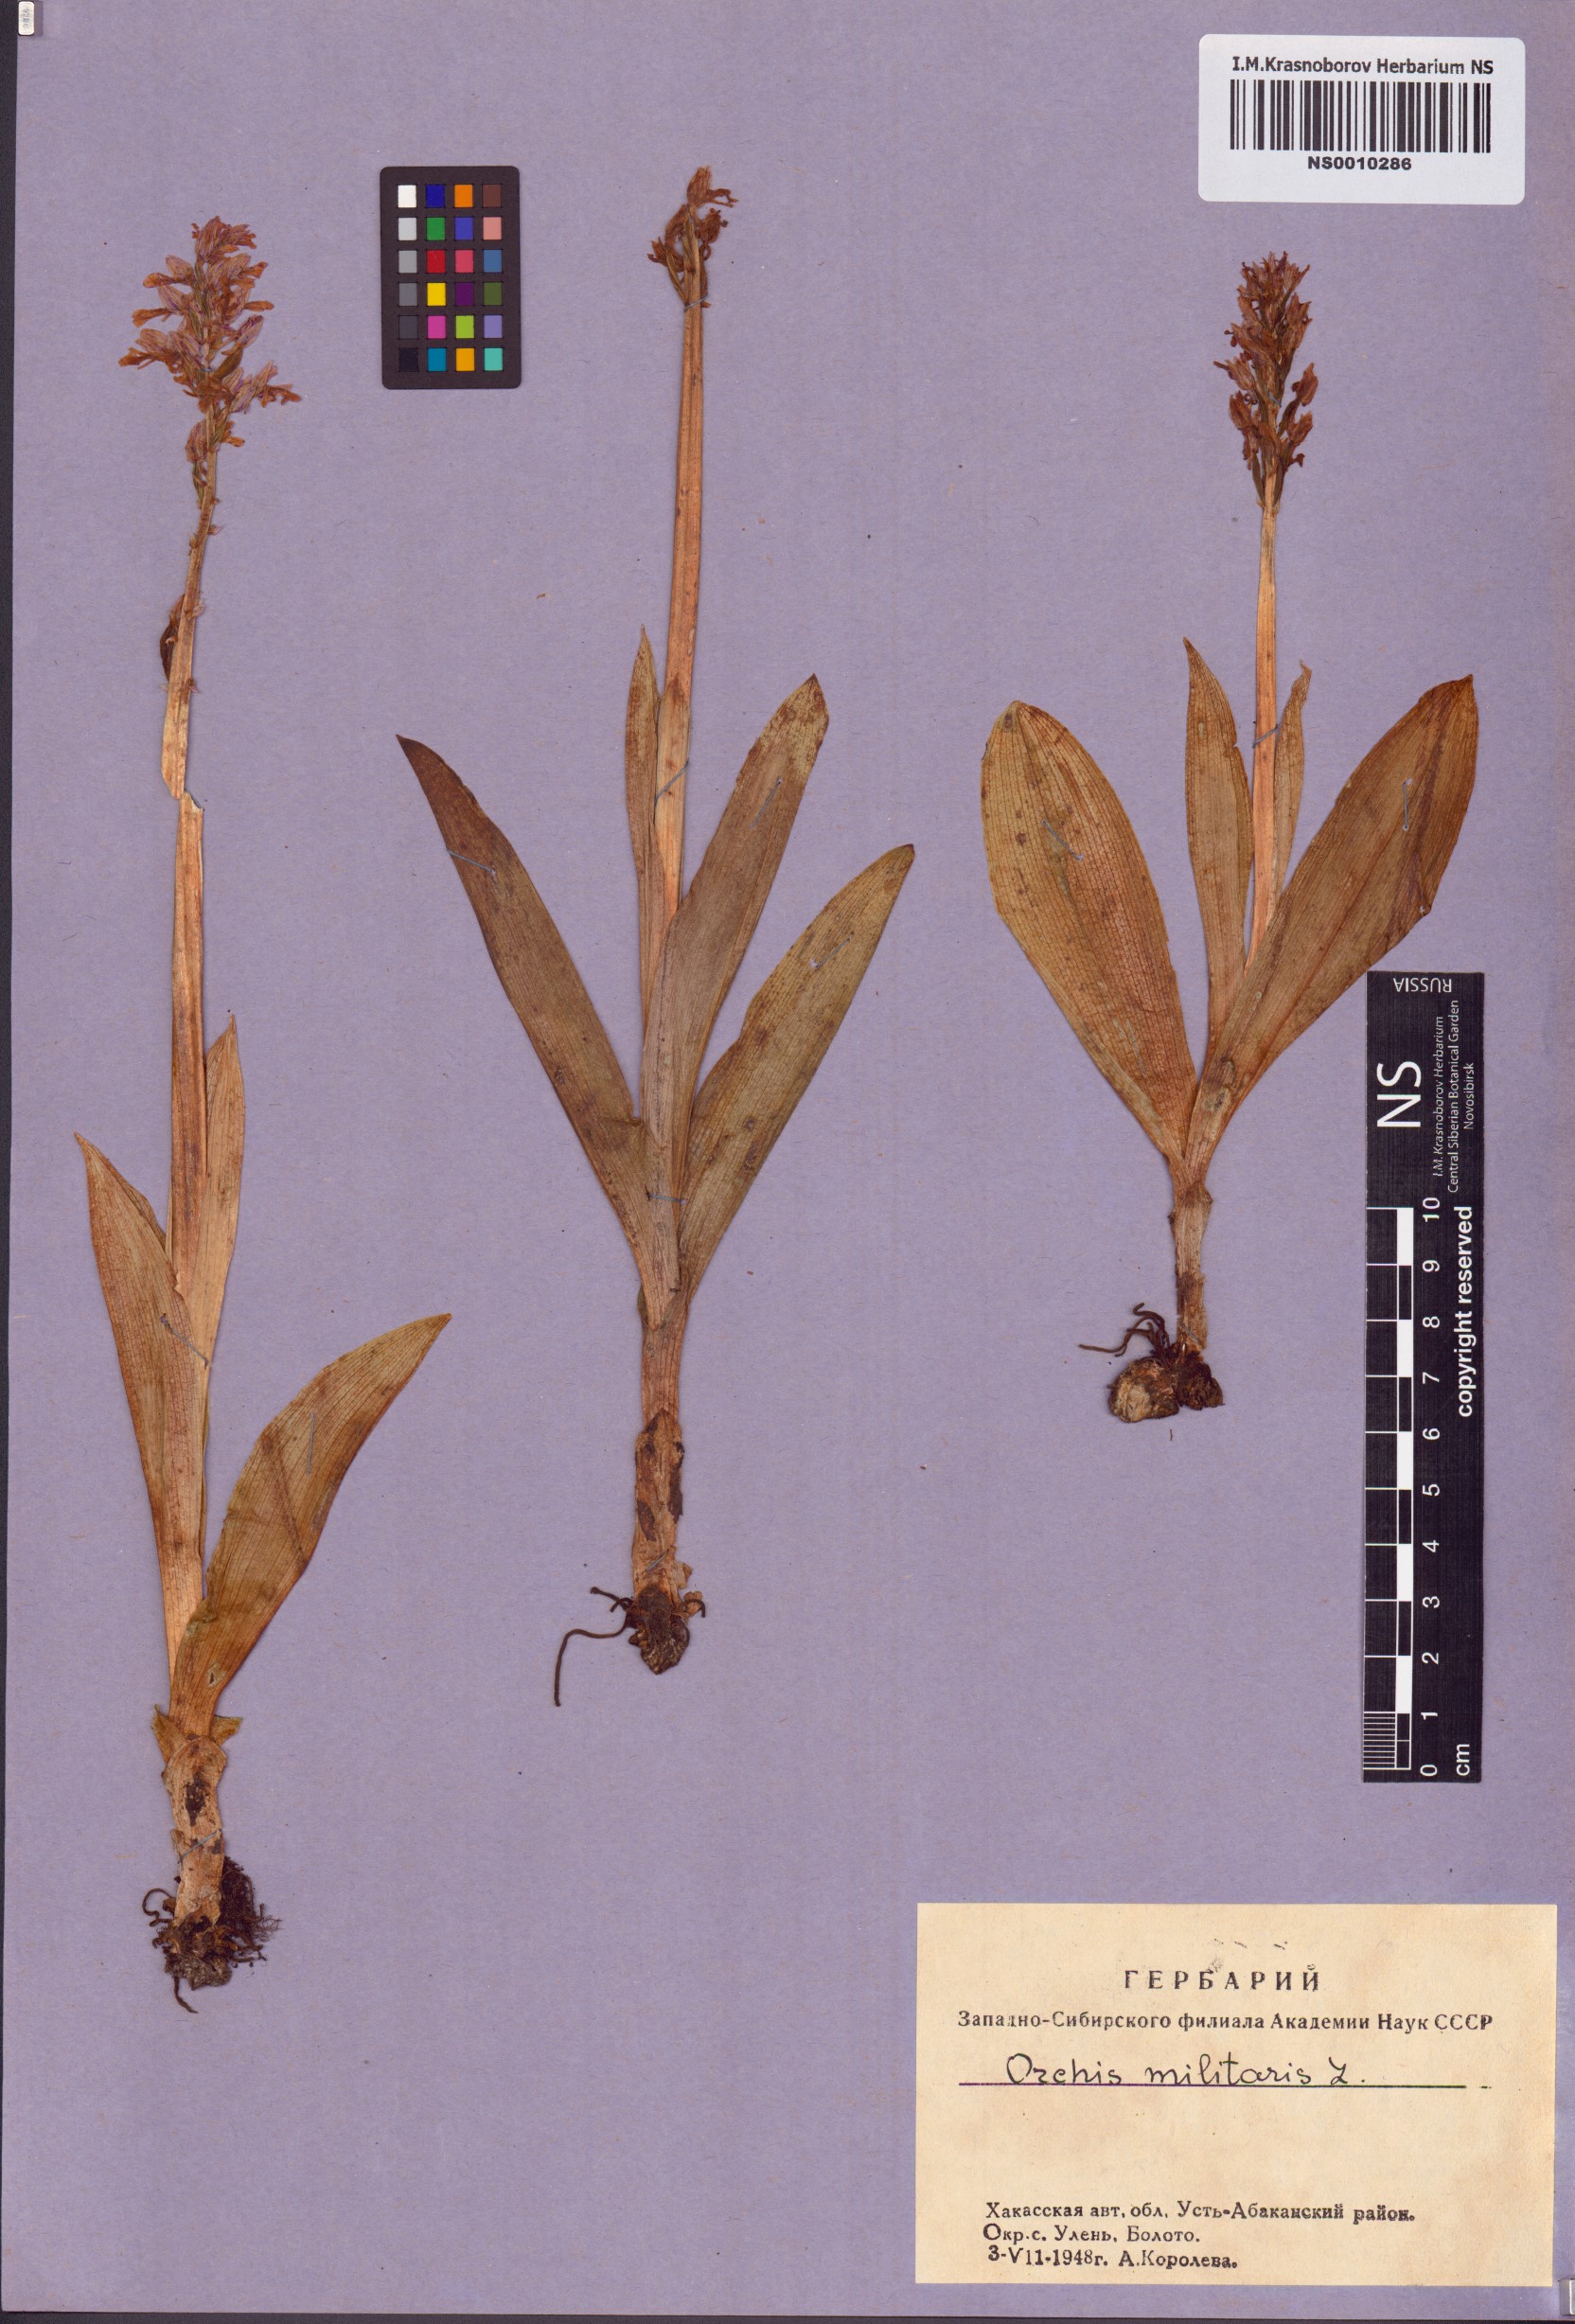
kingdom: Plantae
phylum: Tracheophyta
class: Liliopsida
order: Asparagales
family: Orchidaceae
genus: Orchis
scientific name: Orchis militaris
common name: Military orchid
